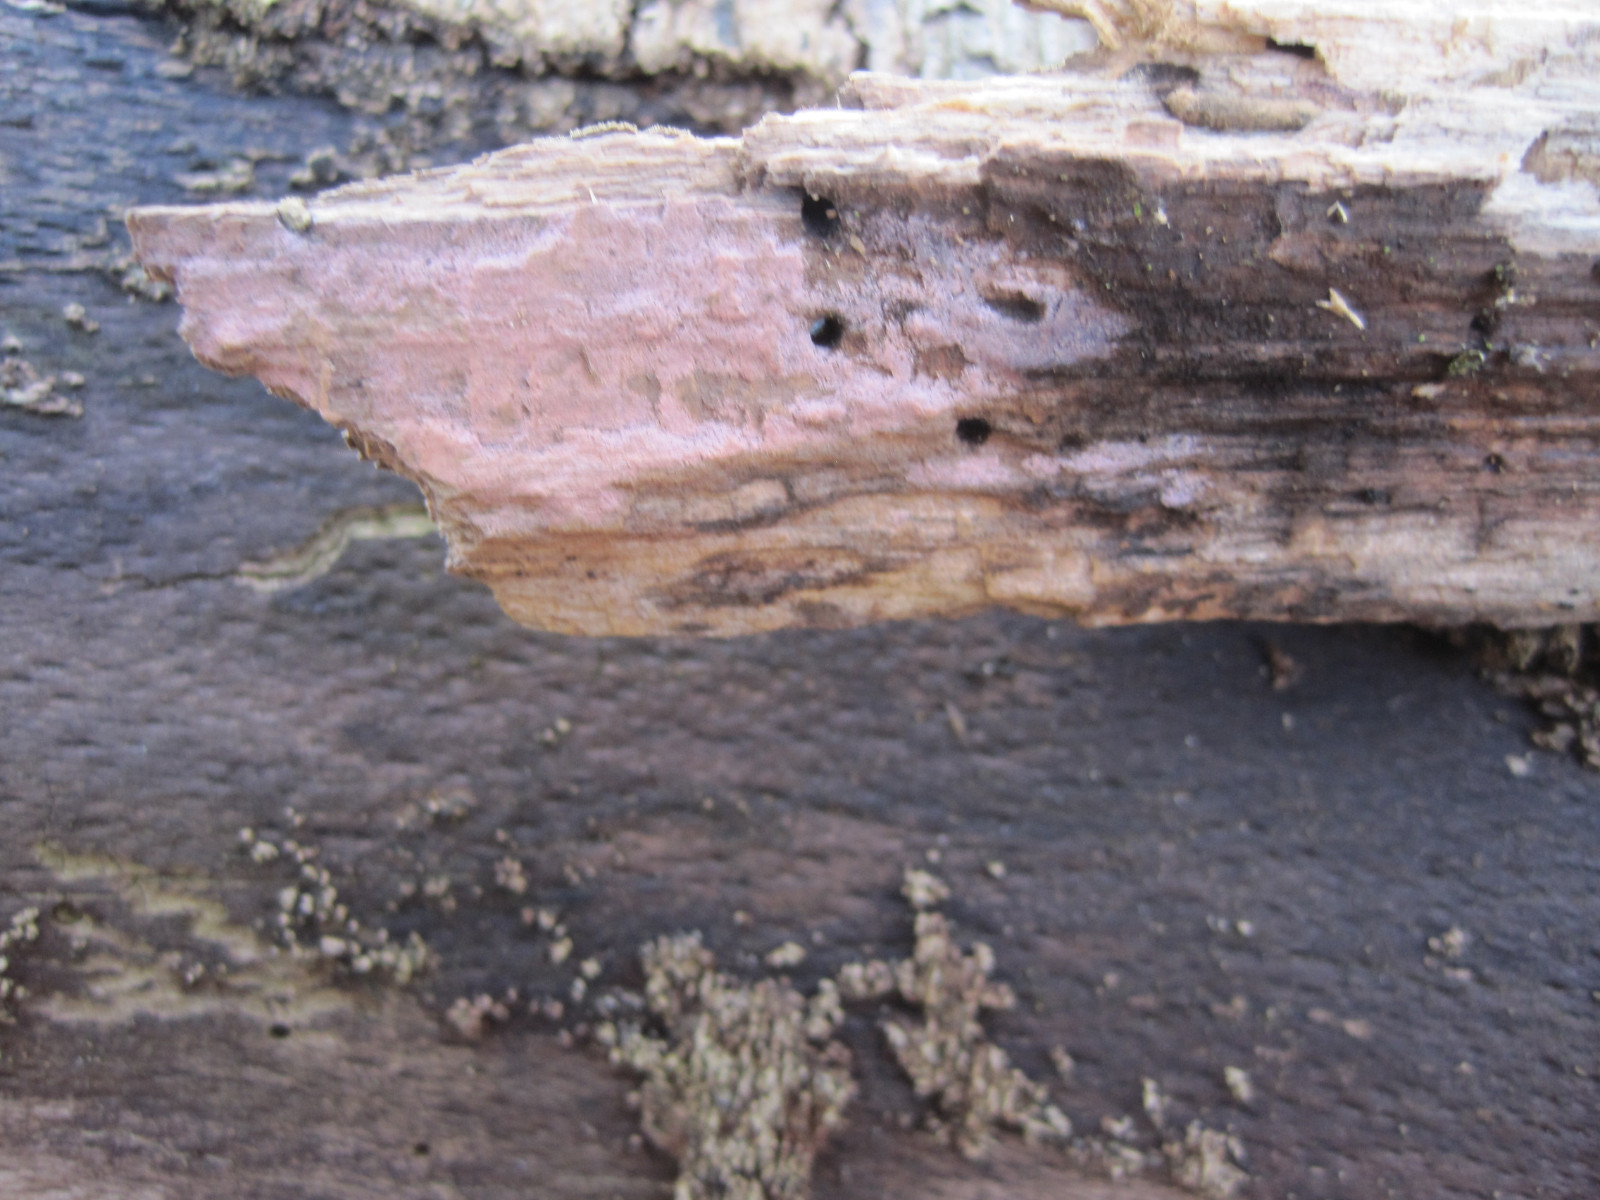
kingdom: Fungi
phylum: Basidiomycota
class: Agaricomycetes
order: Cantharellales
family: Tulasnellaceae
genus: Tulasnella
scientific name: Tulasnella violea
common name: violet ballonhinde
